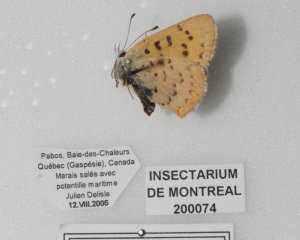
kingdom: Animalia
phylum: Arthropoda
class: Insecta
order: Lepidoptera
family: Lycaenidae
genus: Epidemia
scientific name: Epidemia dorcas
